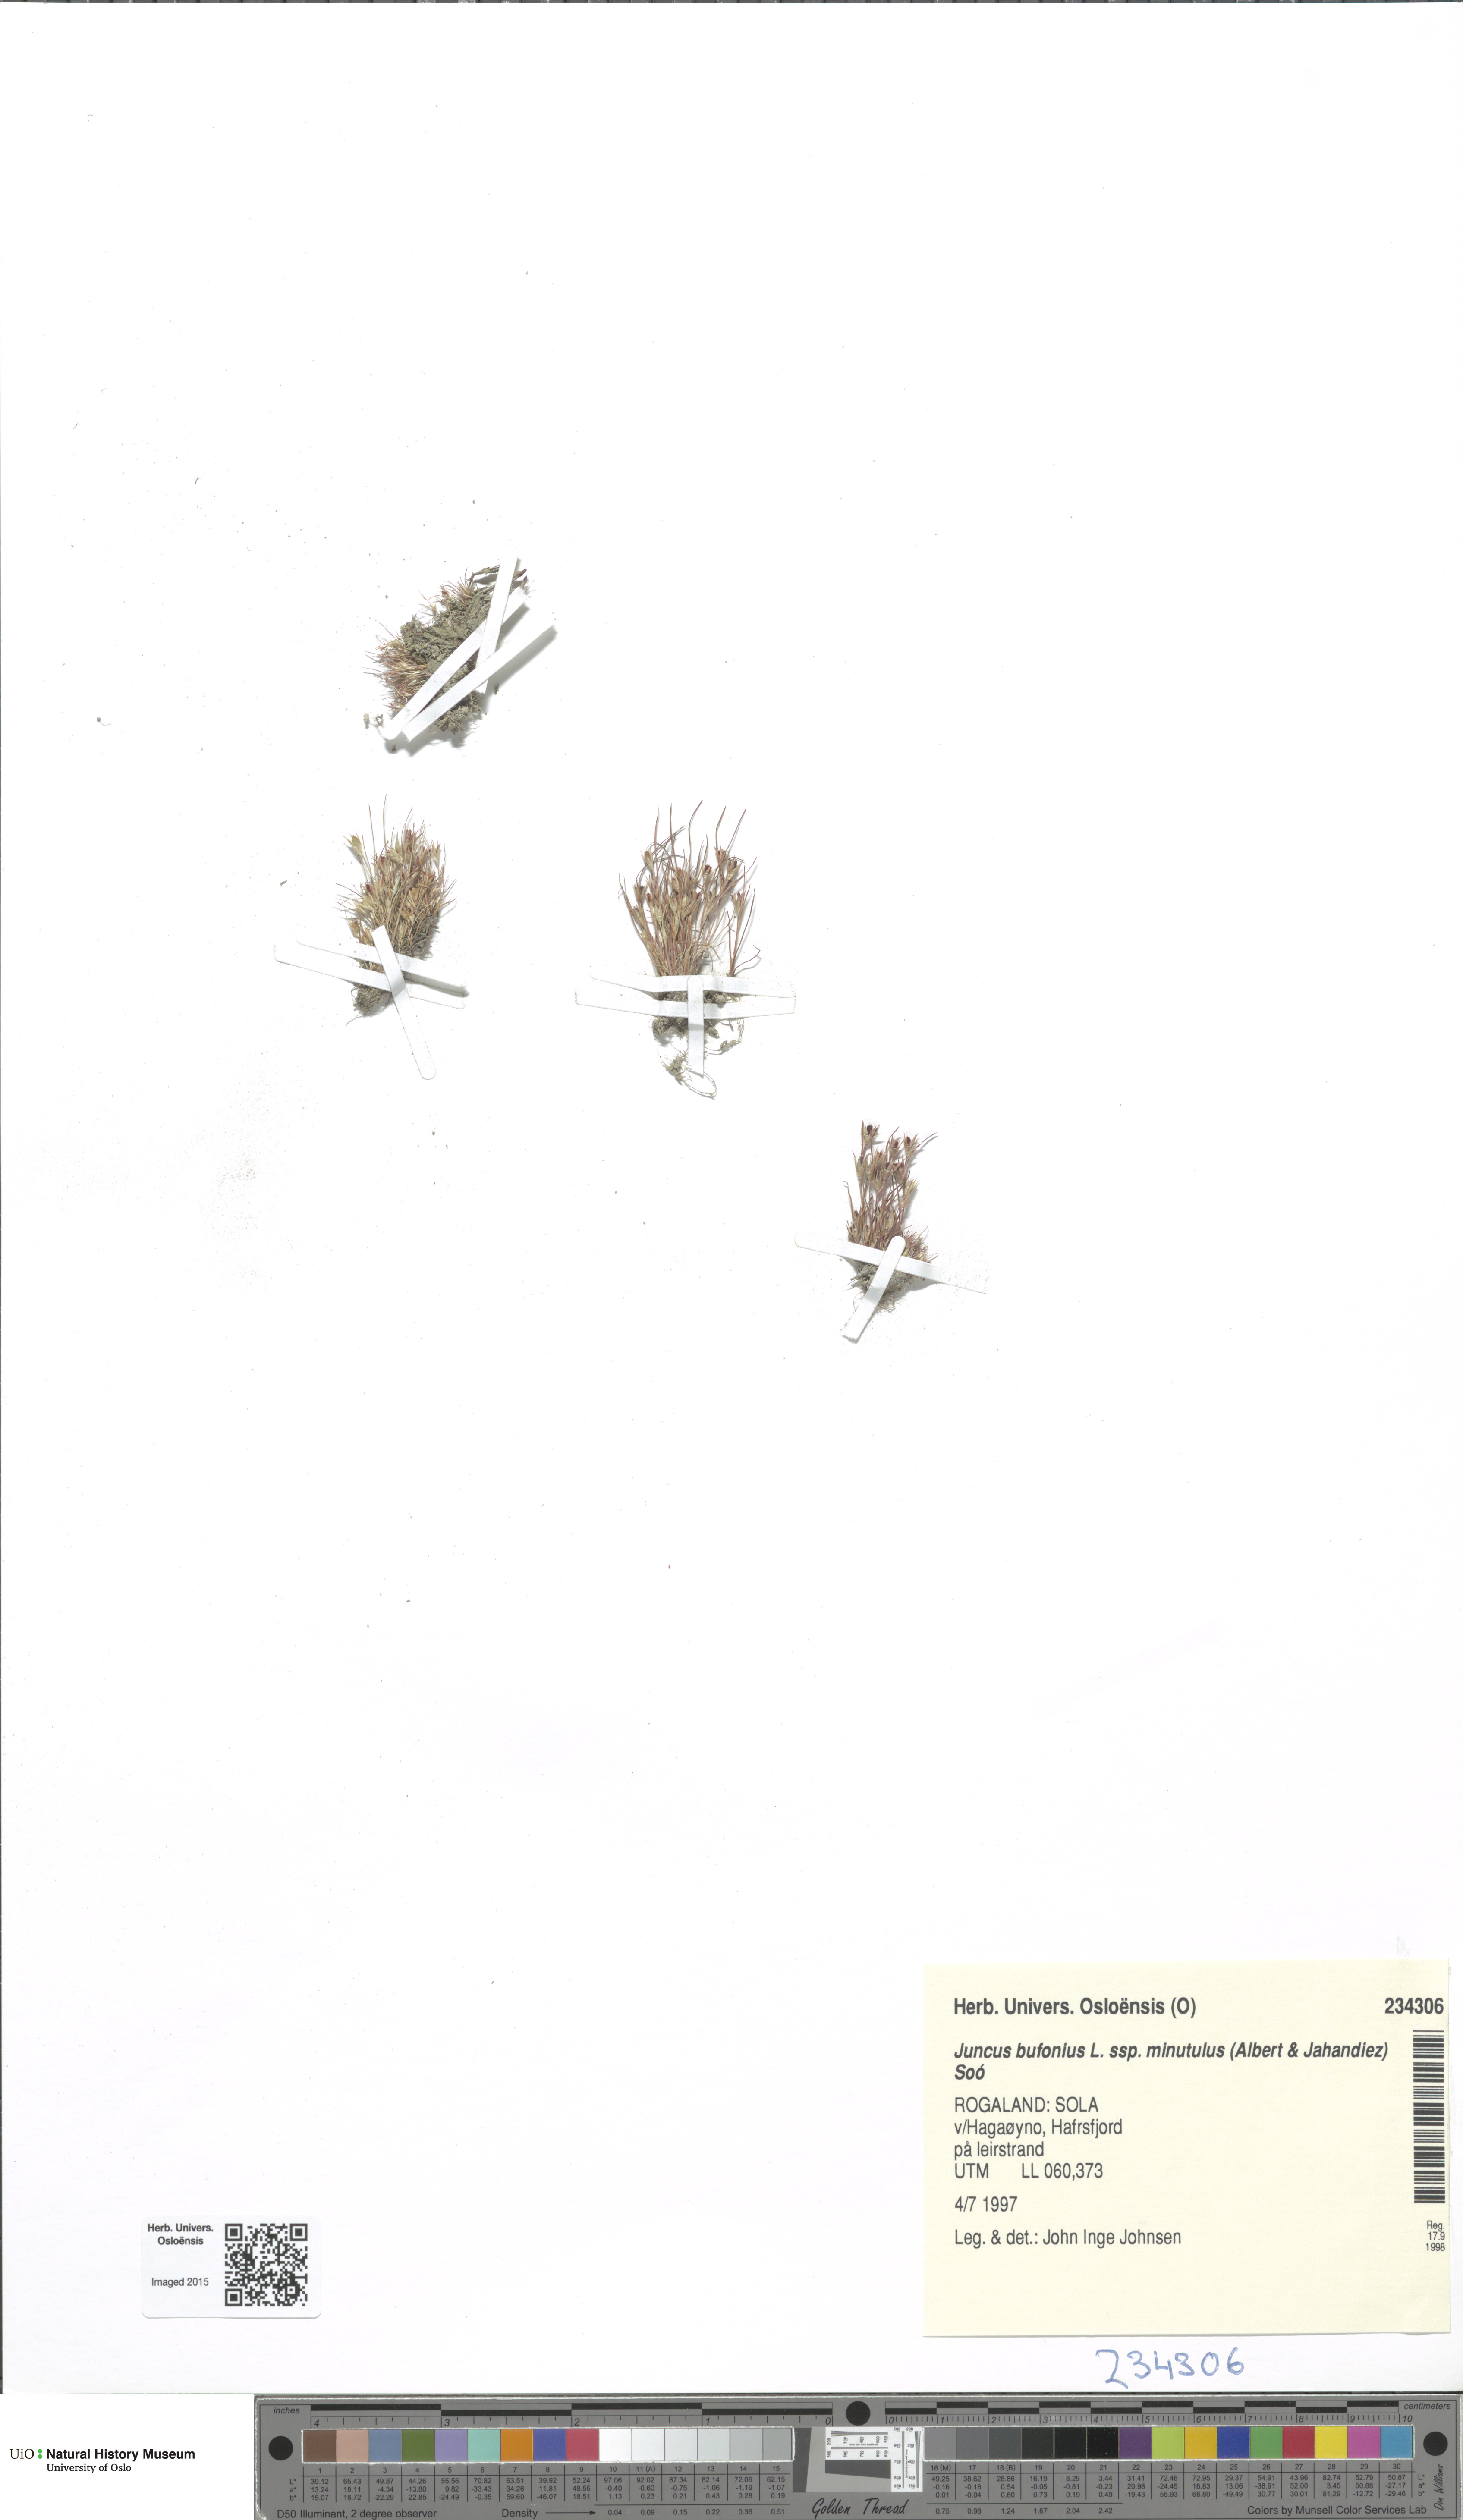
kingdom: Plantae
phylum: Tracheophyta
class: Liliopsida
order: Poales
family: Juncaceae
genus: Juncus
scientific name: Juncus minutulus
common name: Minute rush
